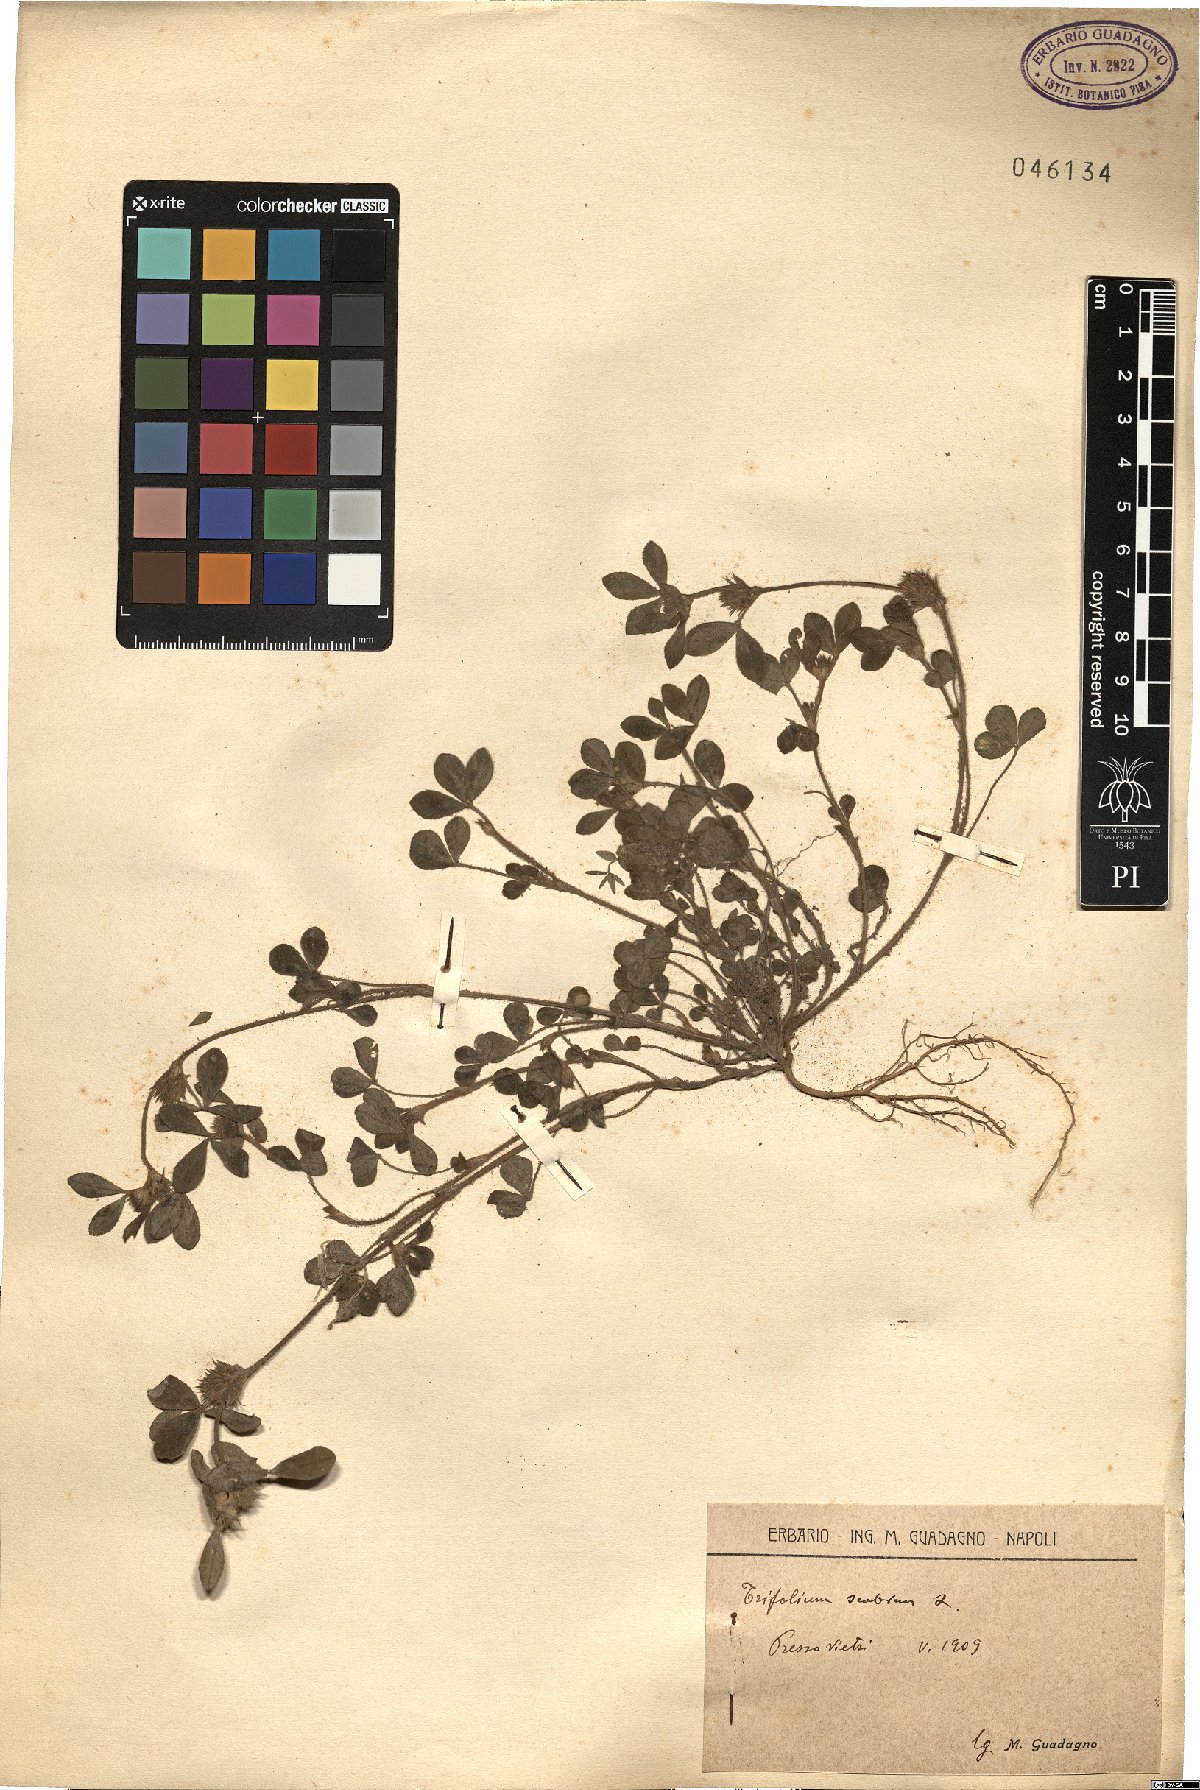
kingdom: Plantae
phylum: Tracheophyta
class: Magnoliopsida
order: Fabales
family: Fabaceae
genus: Trifolium
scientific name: Trifolium scabrum
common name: Rough clover
